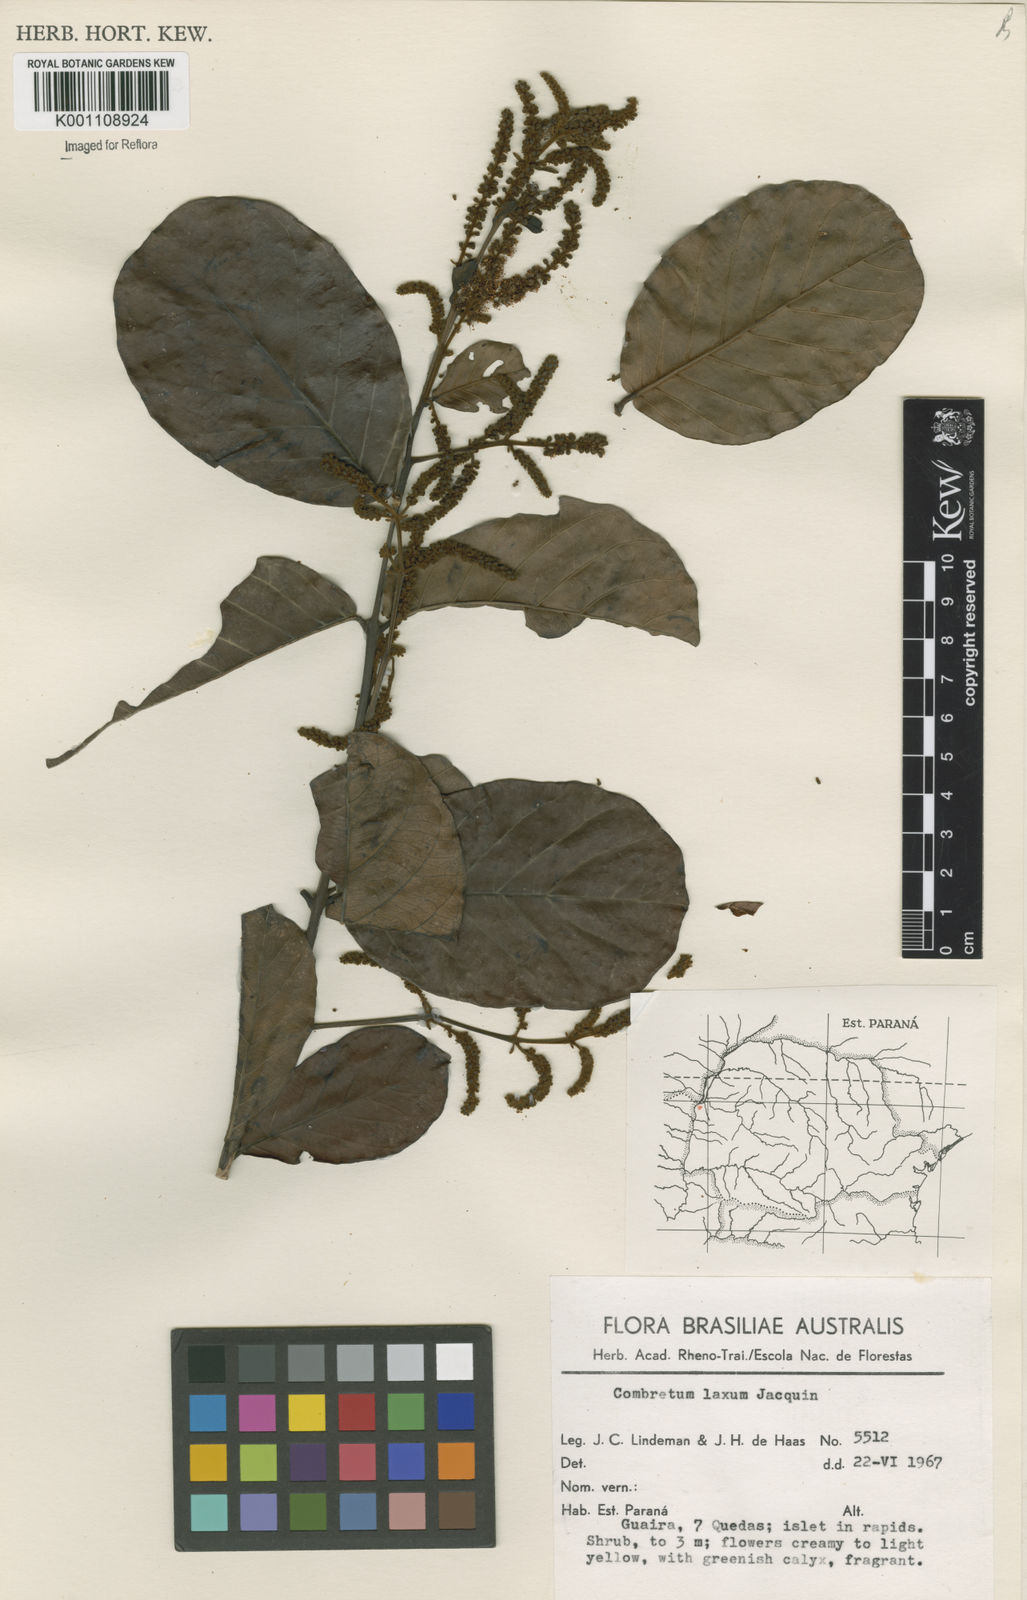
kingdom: Plantae
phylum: Tracheophyta
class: Magnoliopsida
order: Myrtales
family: Combretaceae
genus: Combretum
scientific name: Combretum laxum
